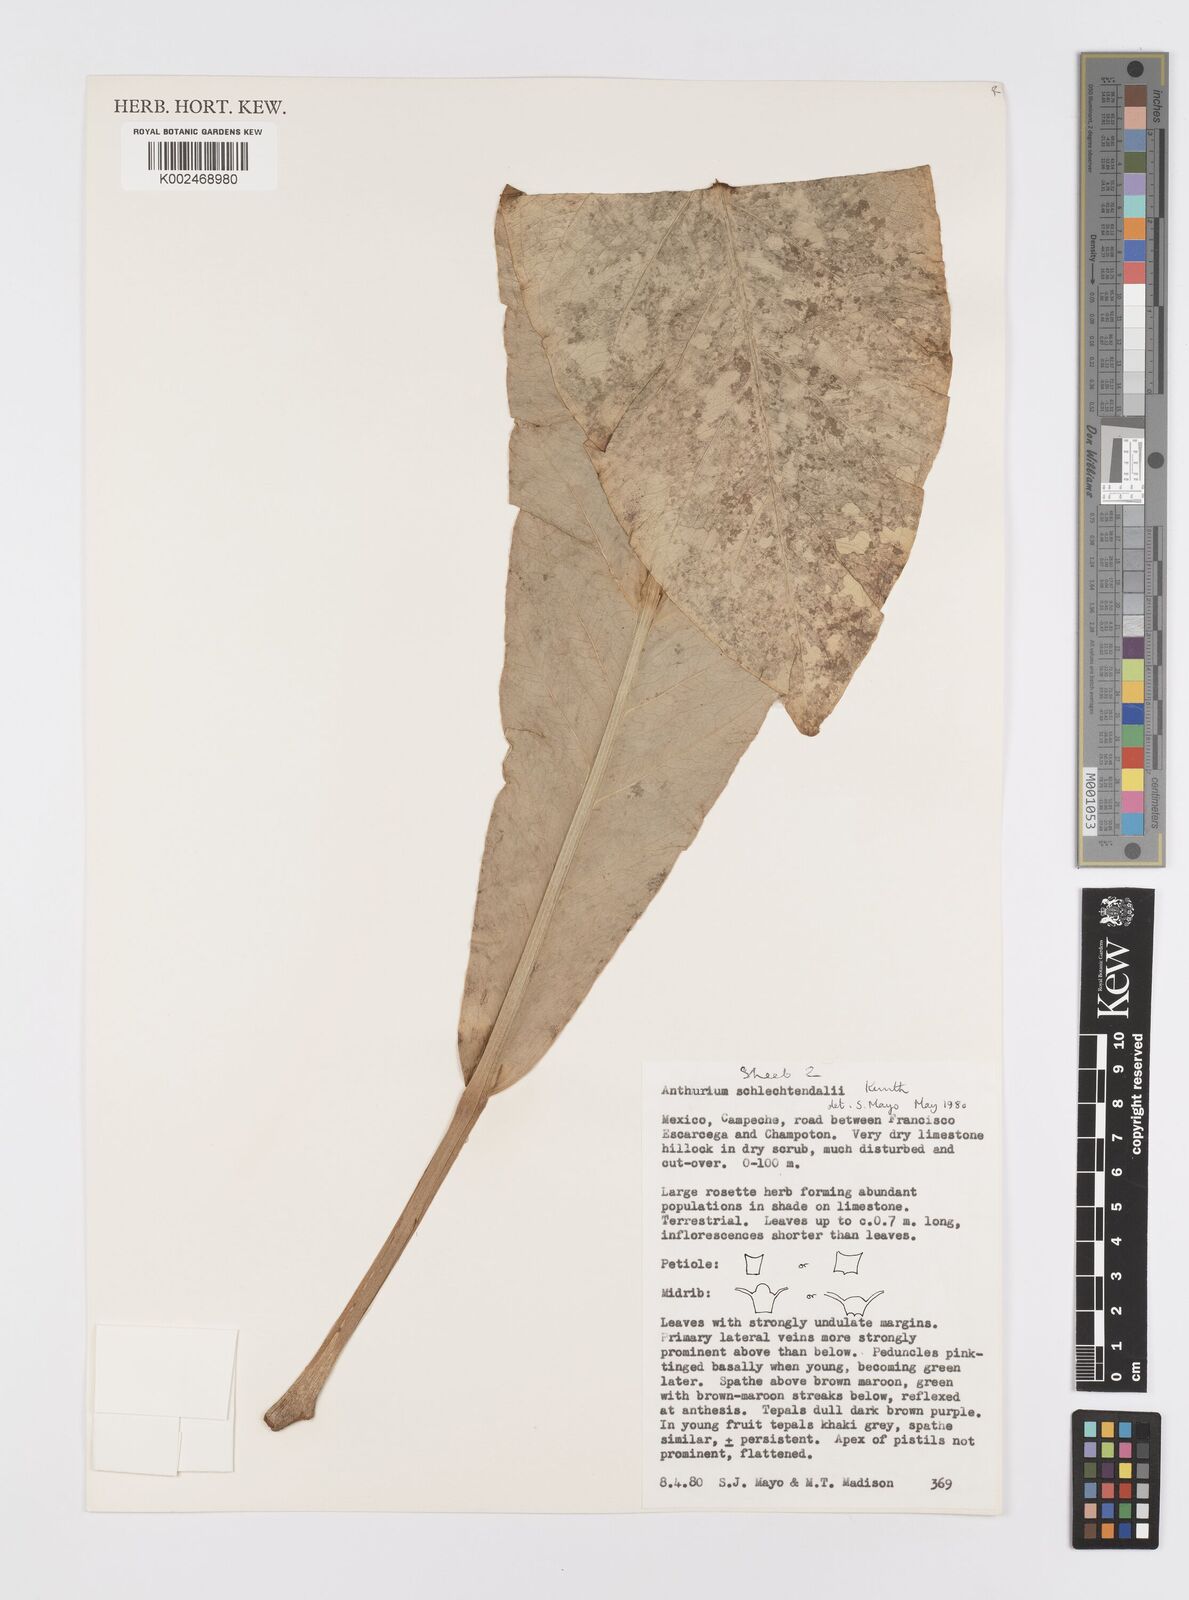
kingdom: Plantae
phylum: Tracheophyta
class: Liliopsida
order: Alismatales
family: Araceae
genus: Anthurium
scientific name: Anthurium schlechtendalii
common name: Laceleaf
